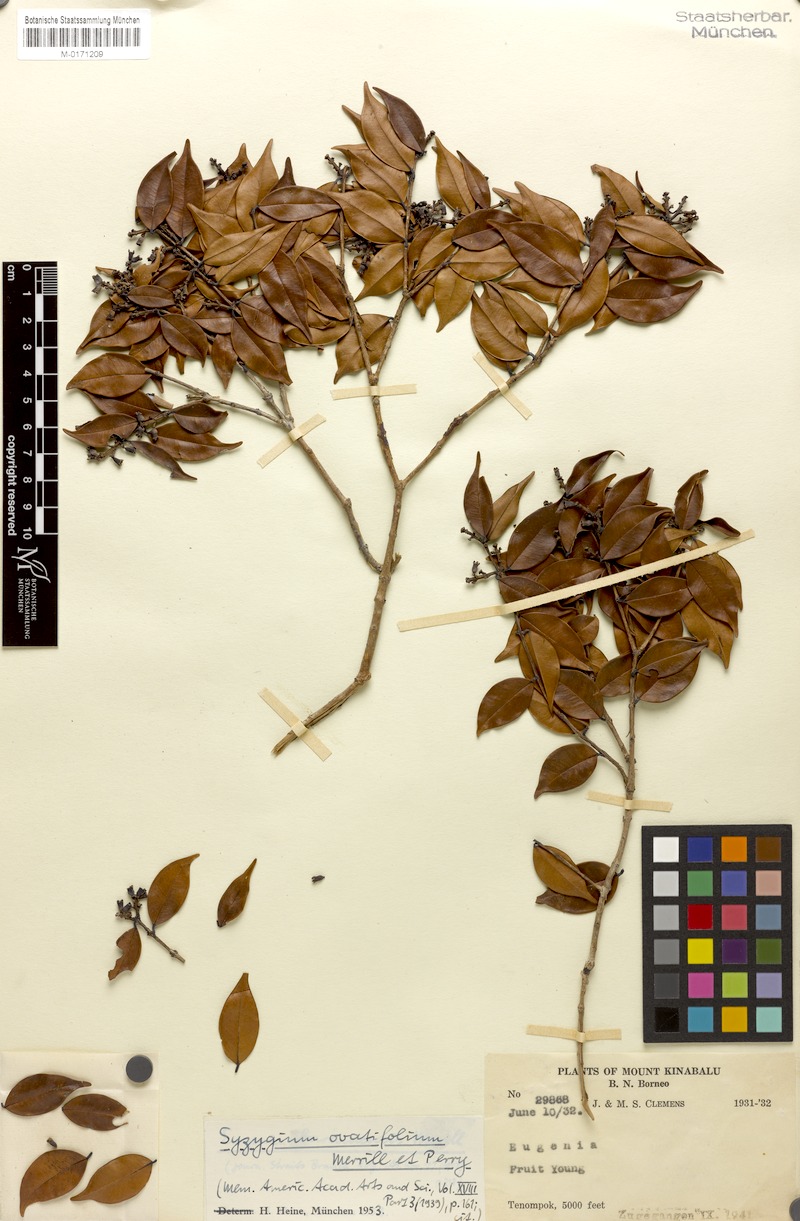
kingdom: Plantae
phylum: Tracheophyta
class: Magnoliopsida
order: Myrtales
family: Myrtaceae
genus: Syzygium
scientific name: Syzygium antisepticum
